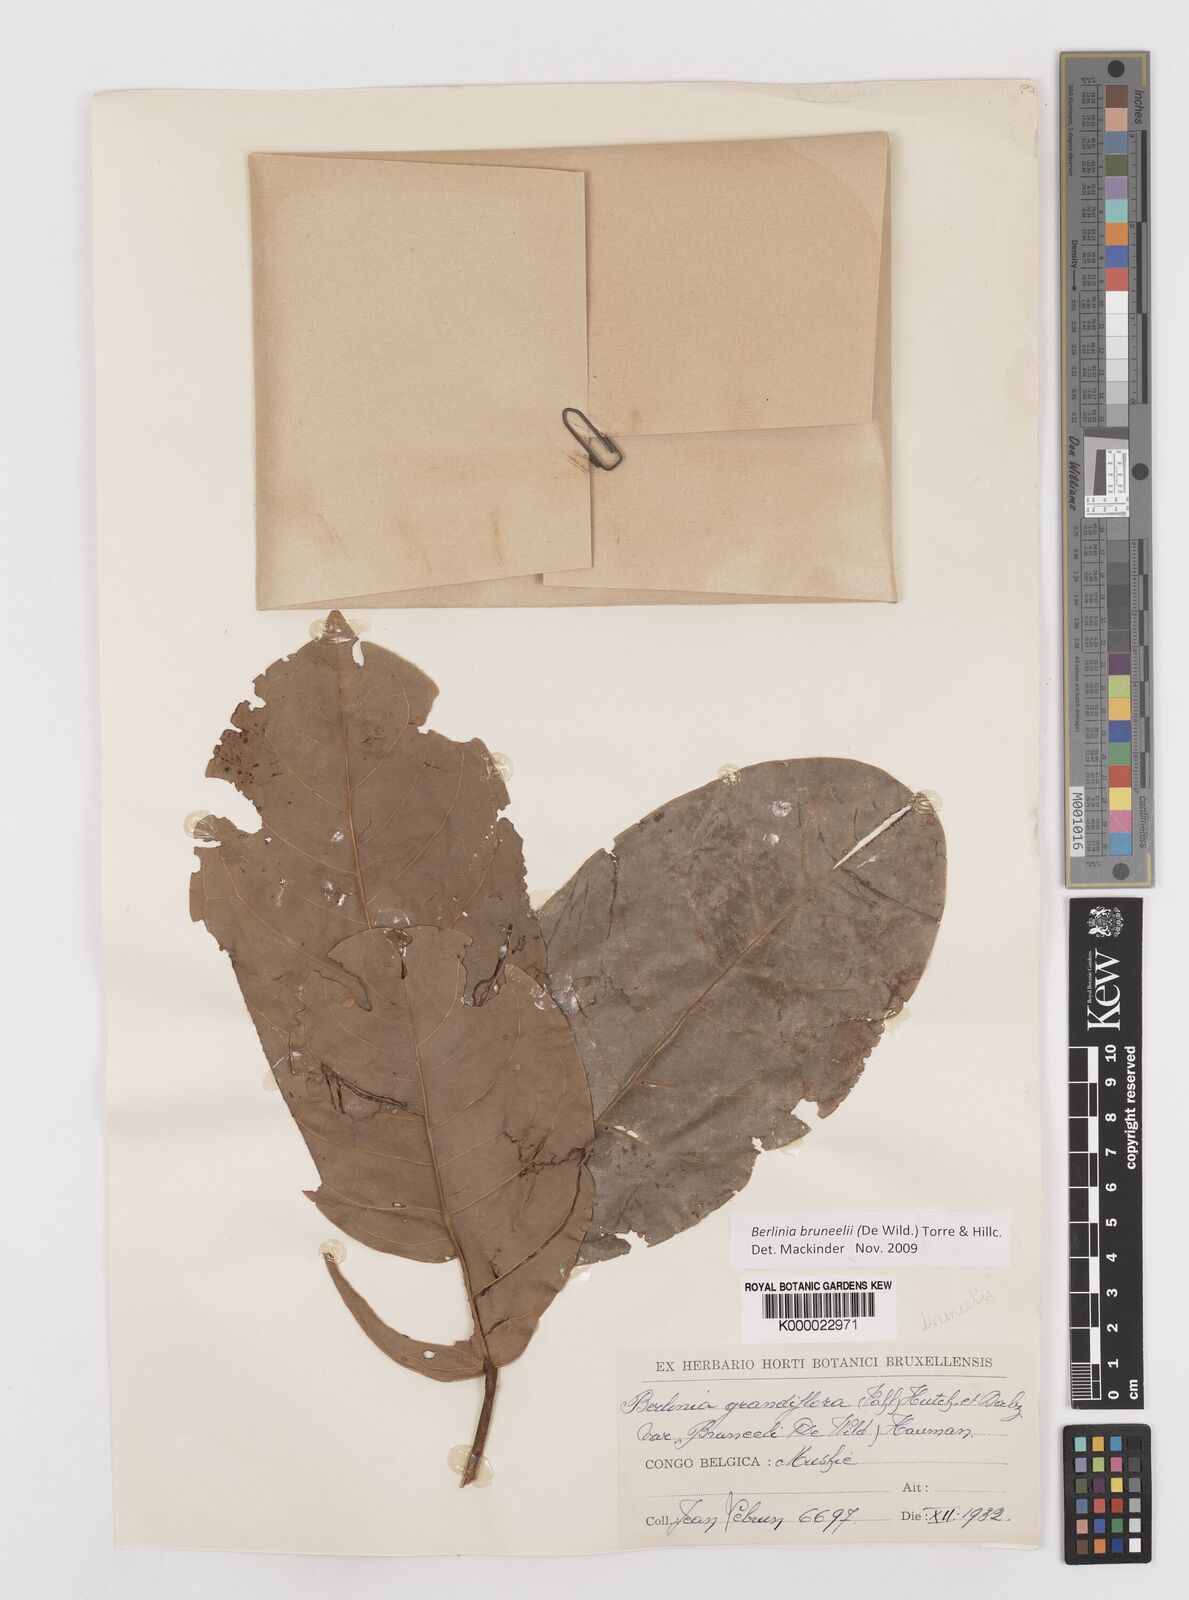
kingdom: Plantae
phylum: Tracheophyta
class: Magnoliopsida
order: Fabales
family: Fabaceae
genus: Berlinia
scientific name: Berlinia bruneelii
